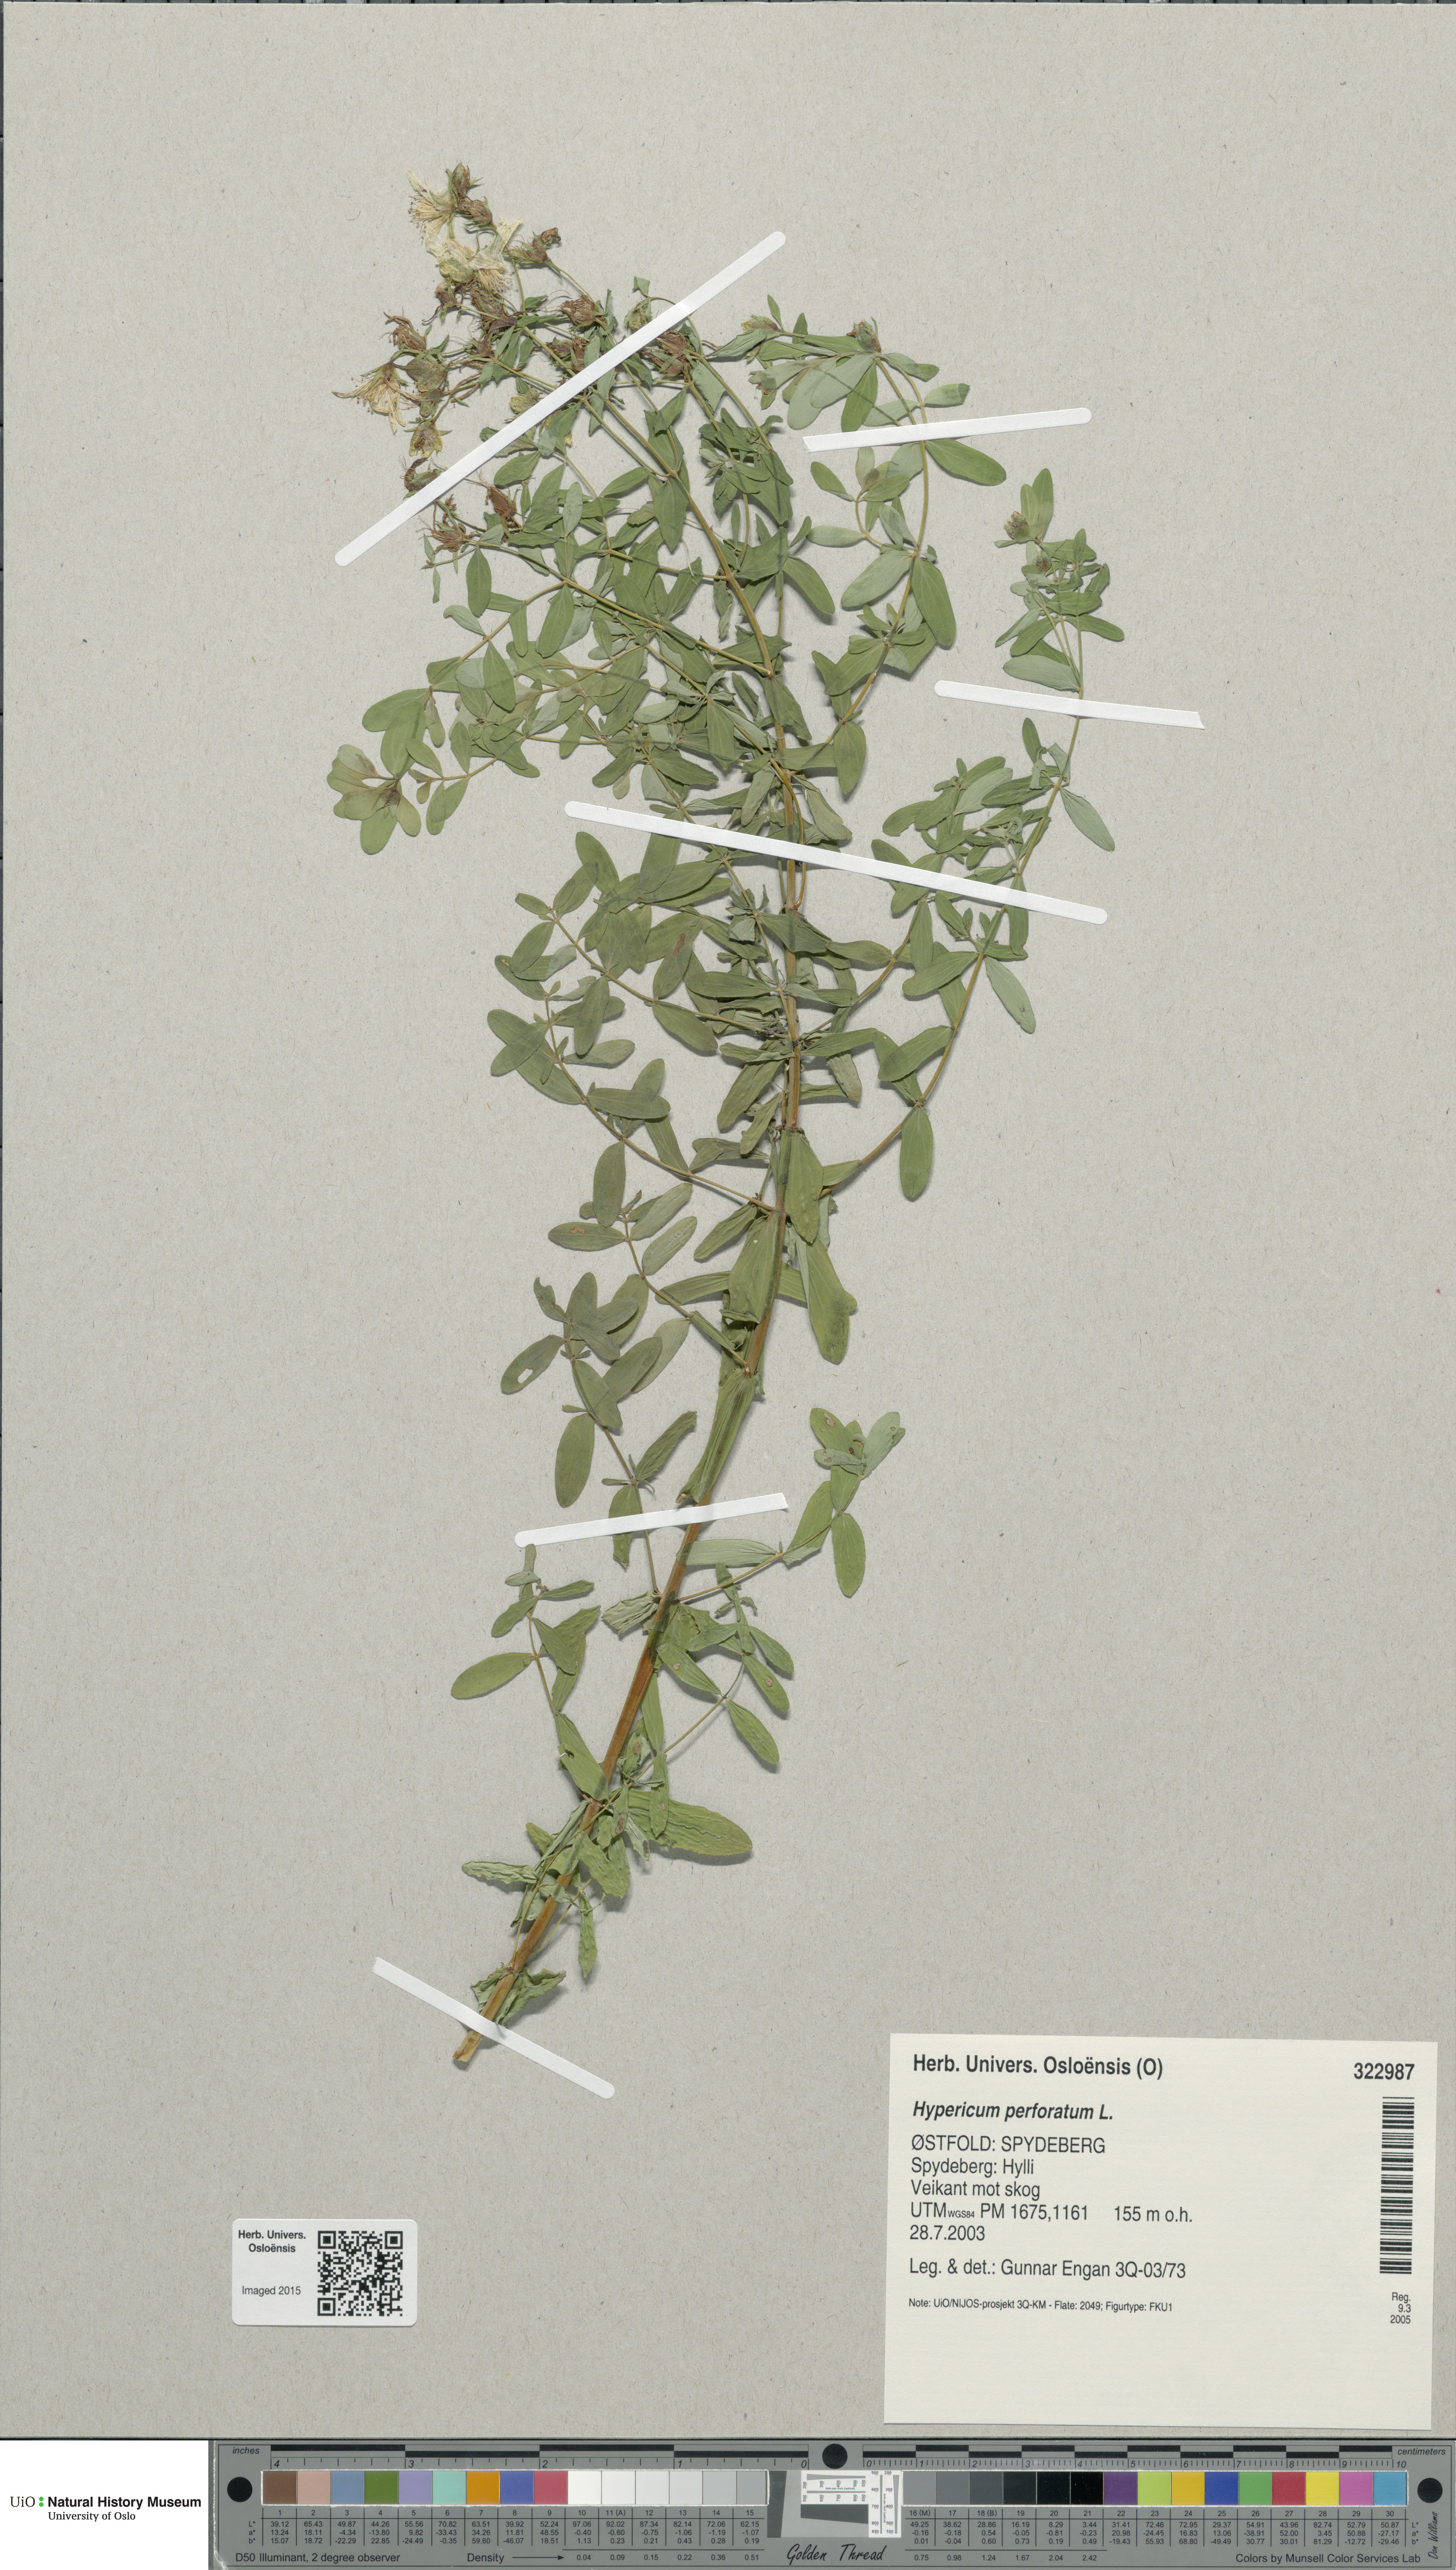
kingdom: Plantae
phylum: Tracheophyta
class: Magnoliopsida
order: Malpighiales
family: Hypericaceae
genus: Hypericum
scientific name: Hypericum perforatum
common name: Common st. johnswort
